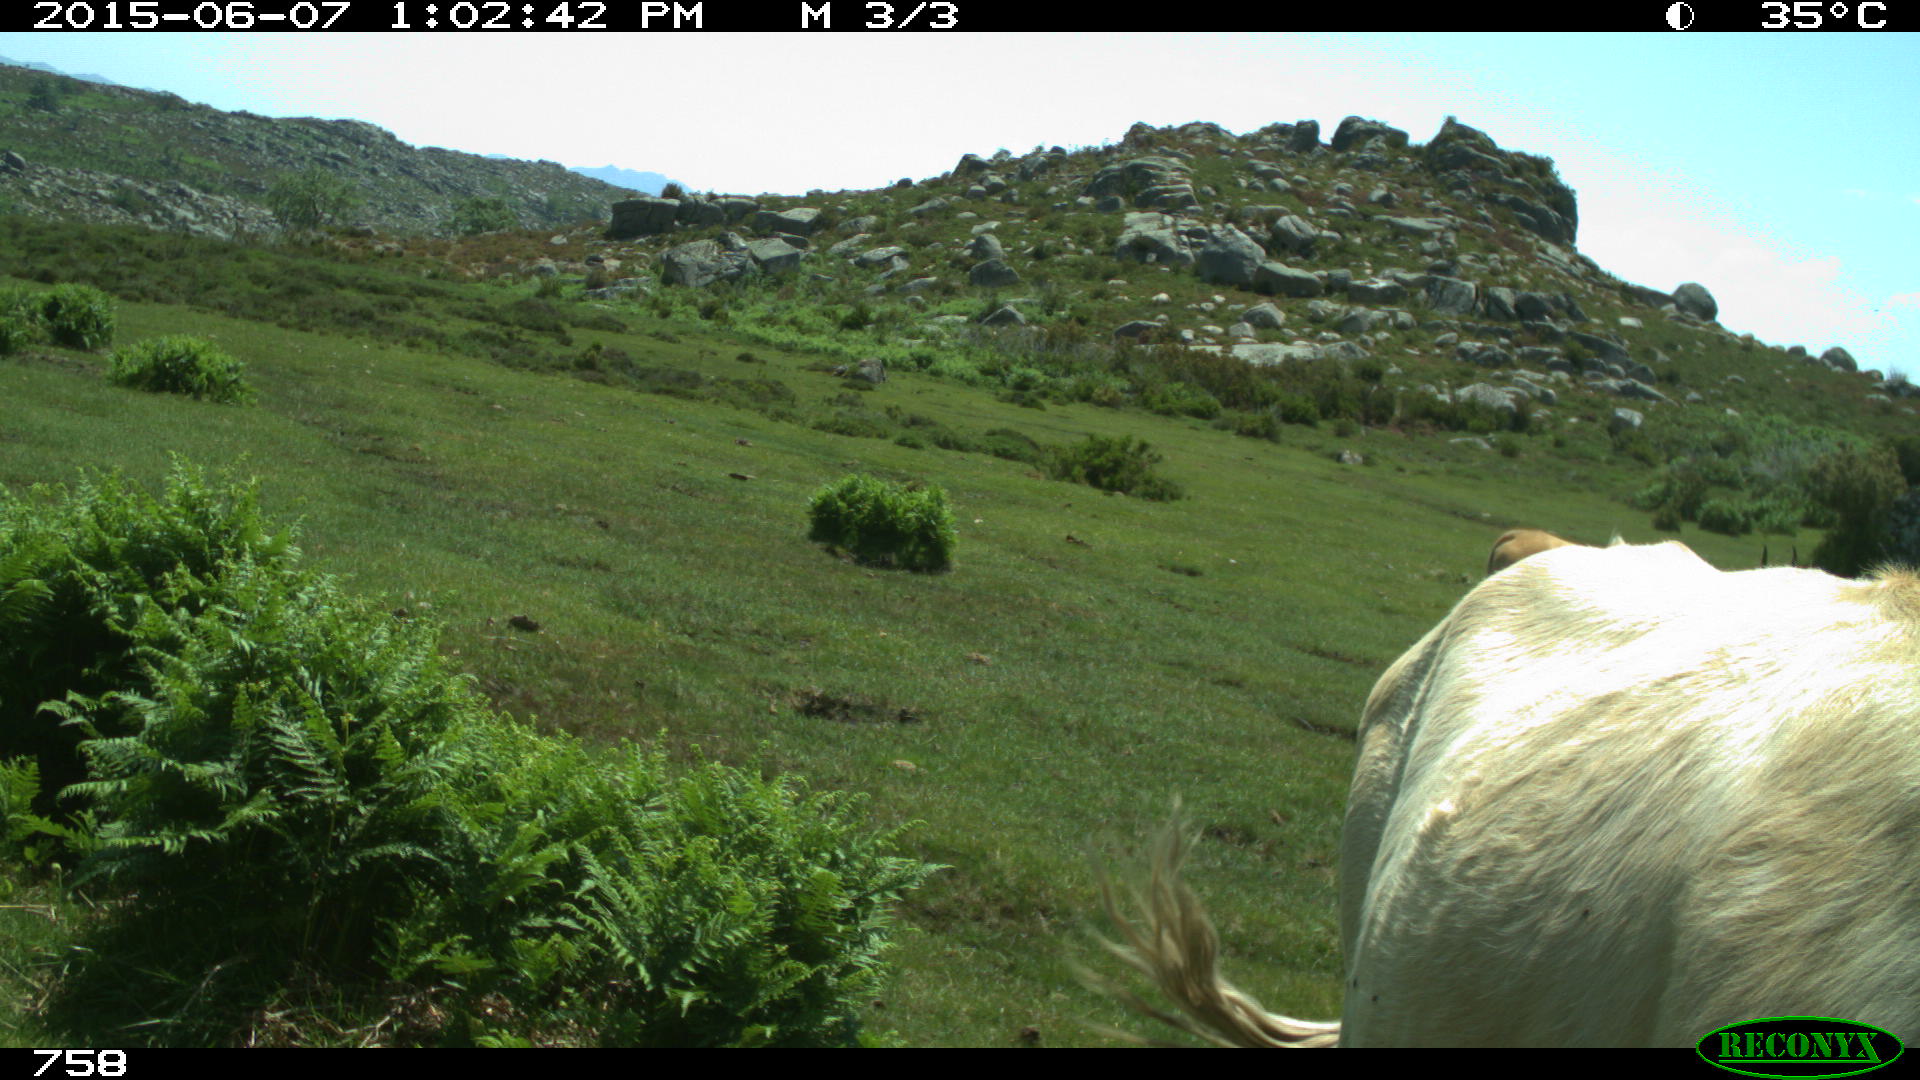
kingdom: Animalia
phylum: Chordata
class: Mammalia
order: Artiodactyla
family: Bovidae
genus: Bos
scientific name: Bos taurus
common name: Domesticated cattle
